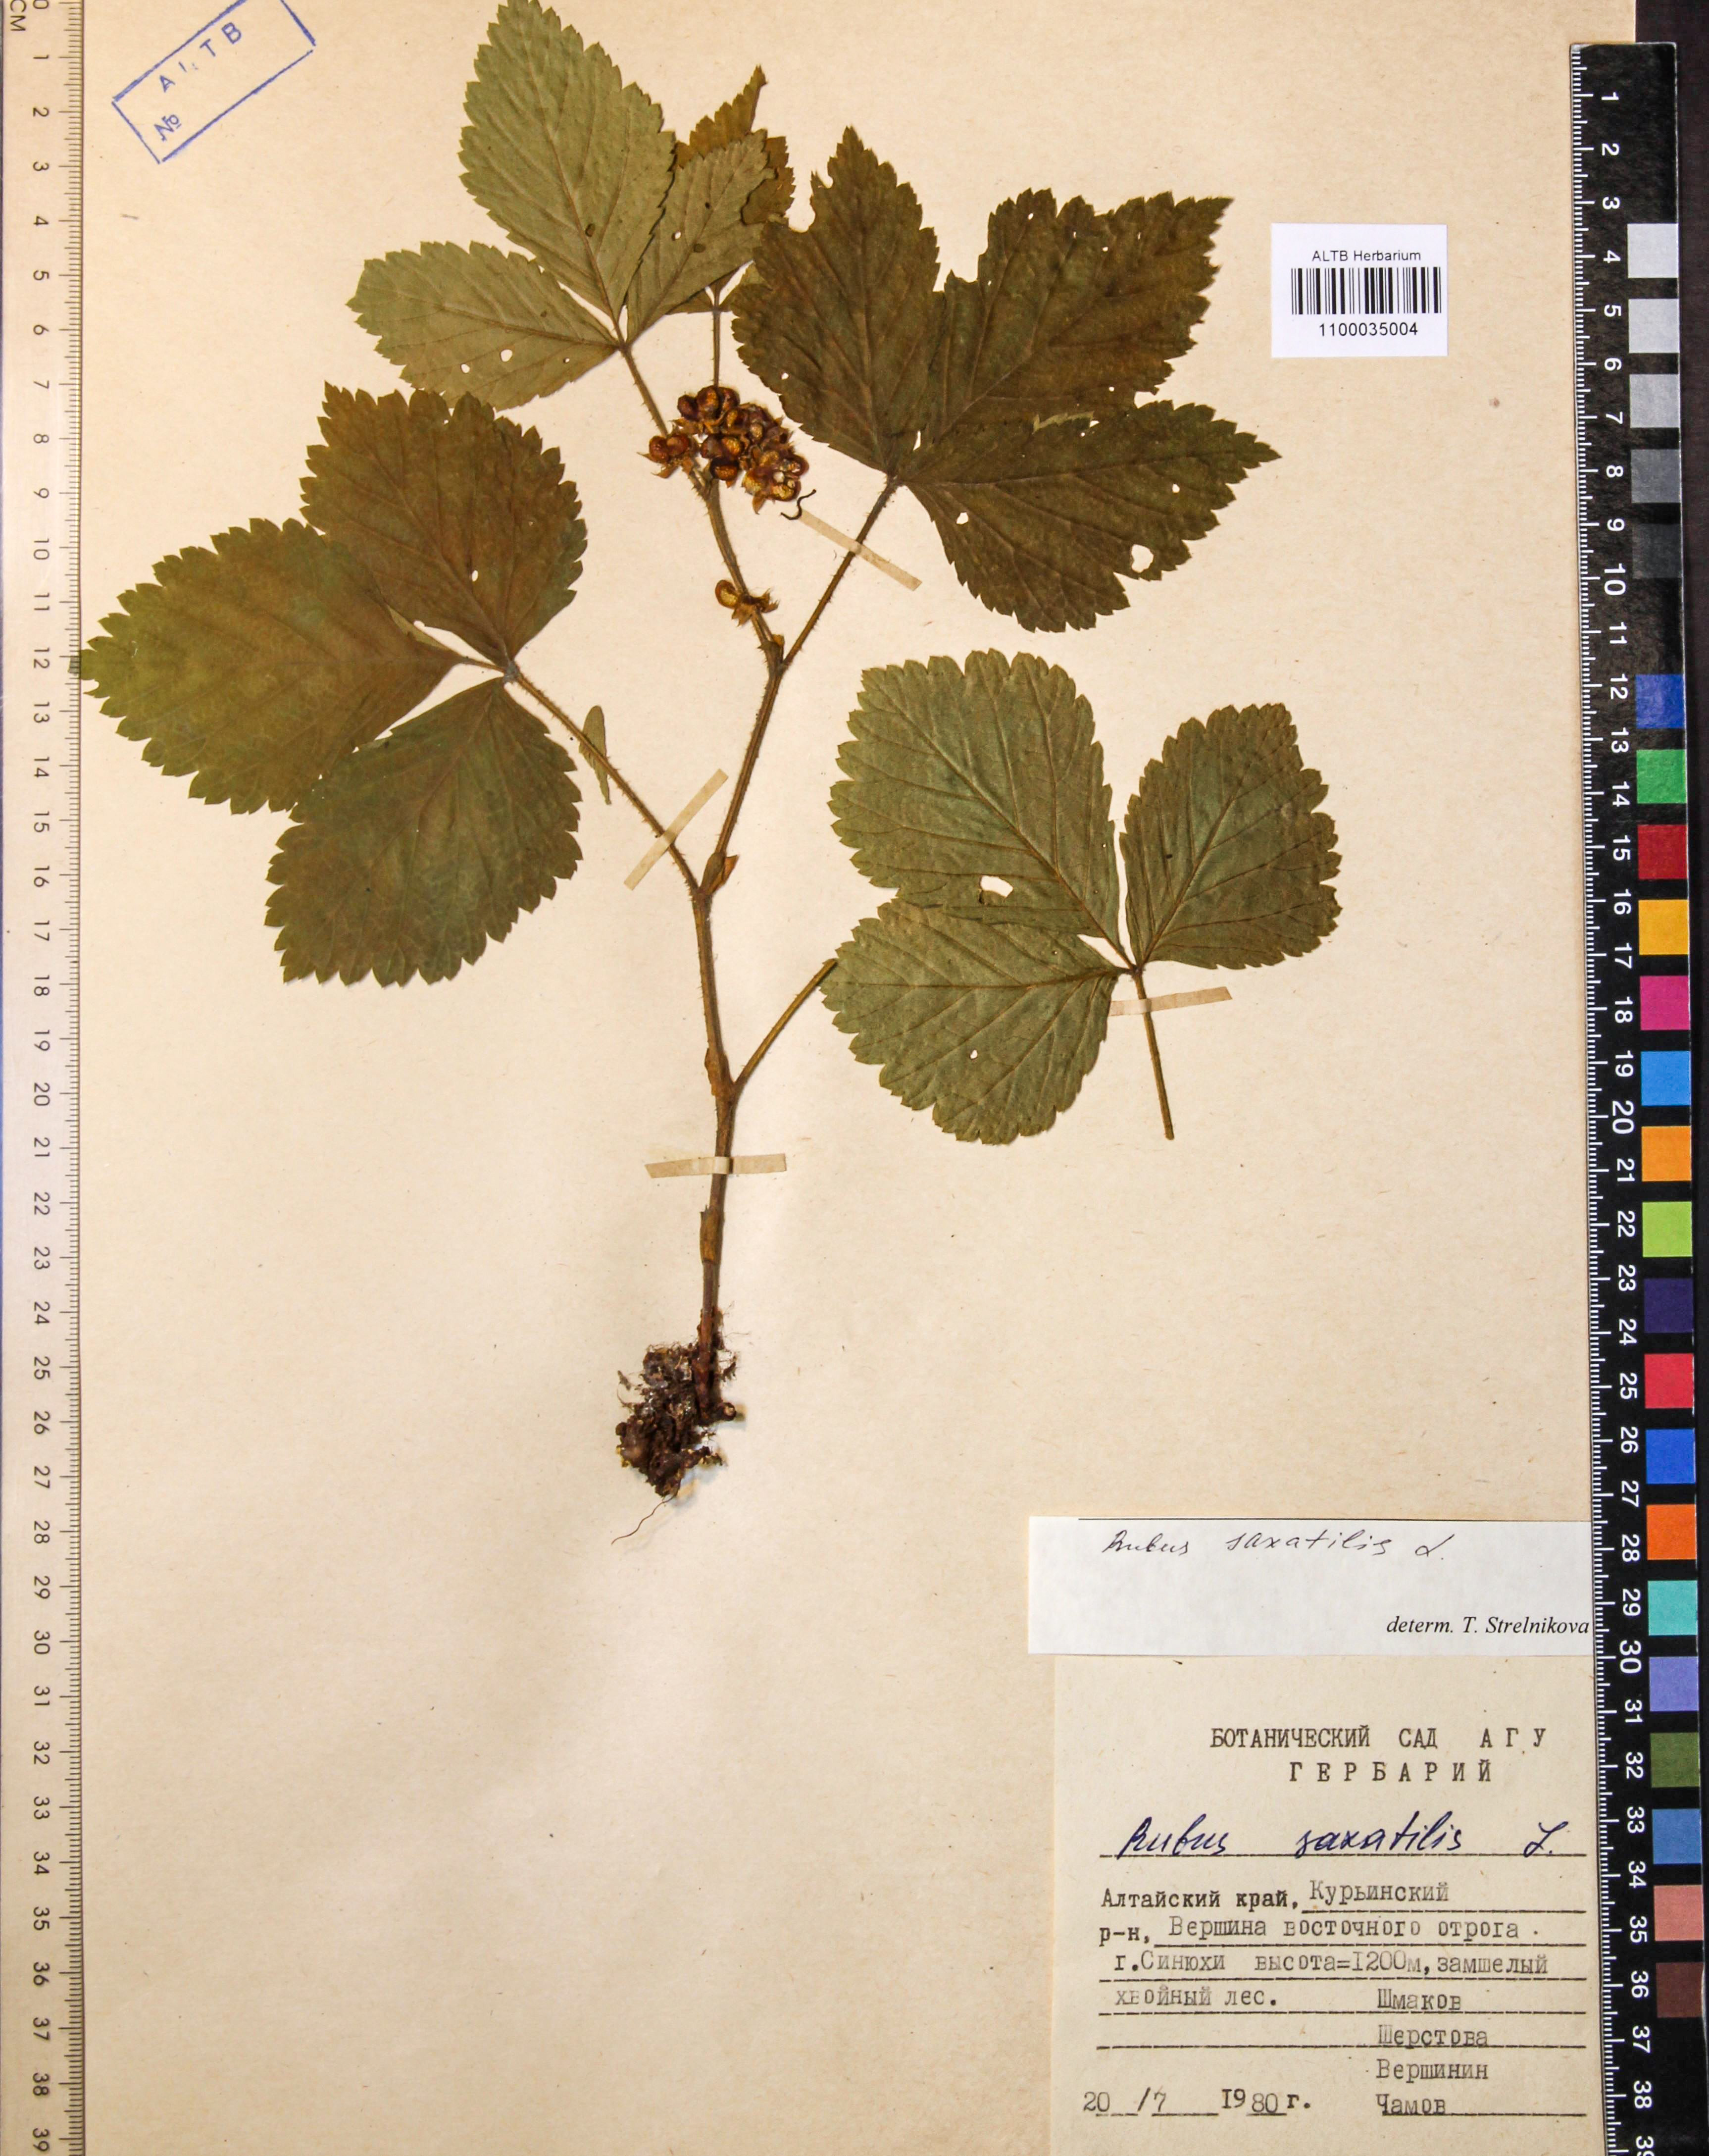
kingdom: Plantae
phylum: Tracheophyta
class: Magnoliopsida
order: Rosales
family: Rosaceae
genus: Rubus
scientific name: Rubus saxatilis
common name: Stone bramble
